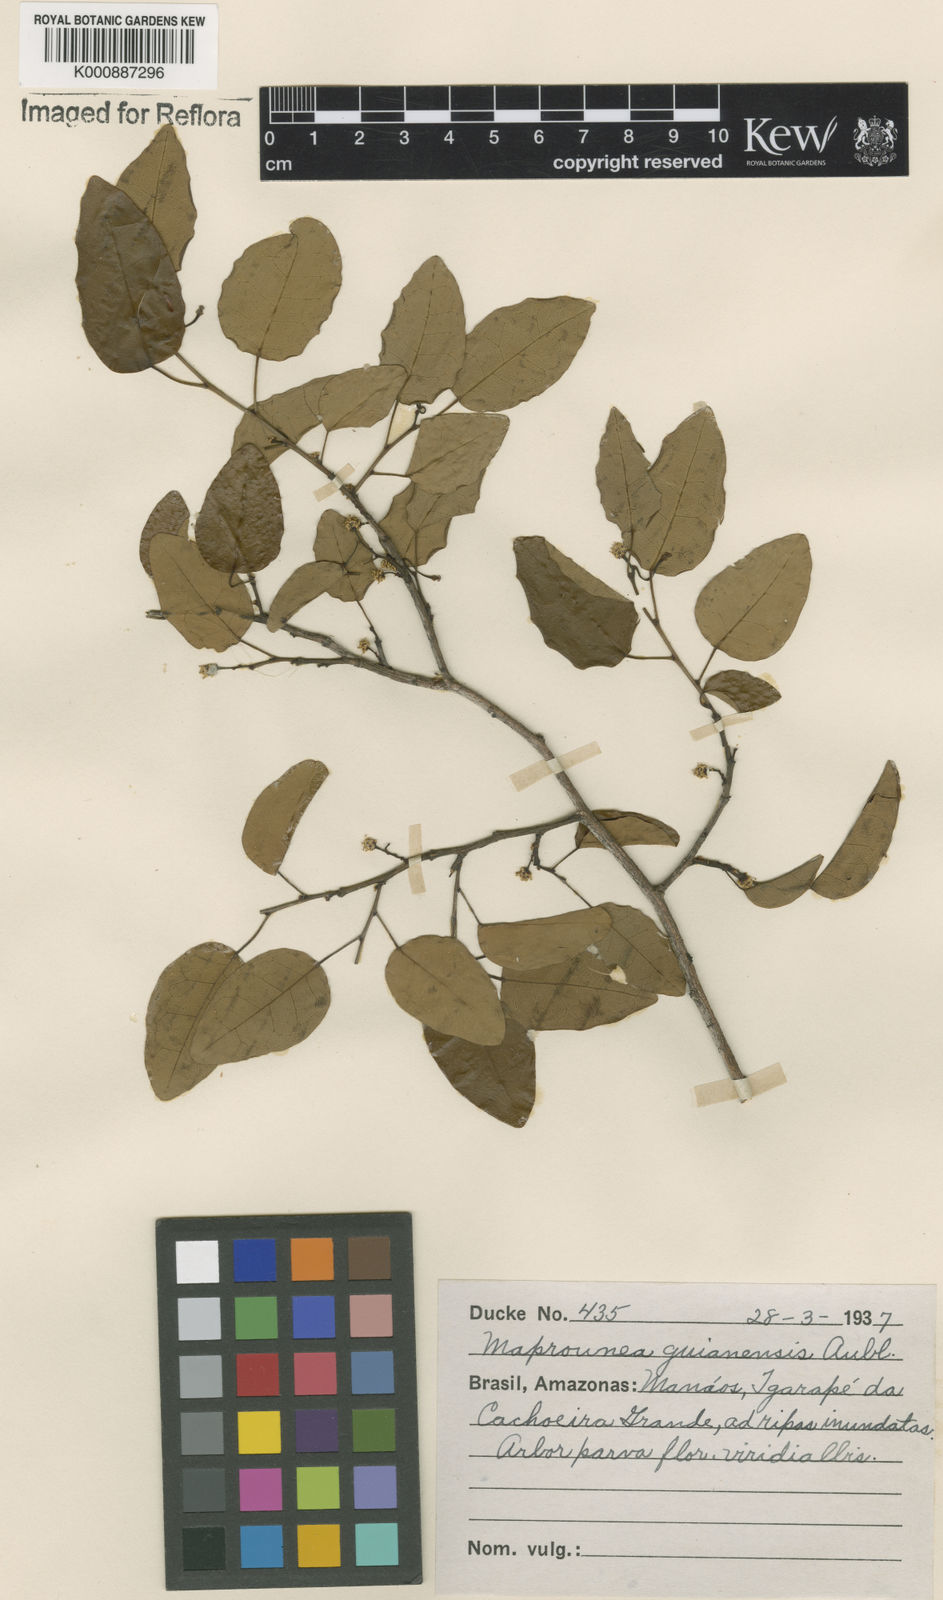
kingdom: Plantae
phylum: Tracheophyta
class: Magnoliopsida
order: Malpighiales
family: Euphorbiaceae
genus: Maprounea
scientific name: Maprounea guianensis
